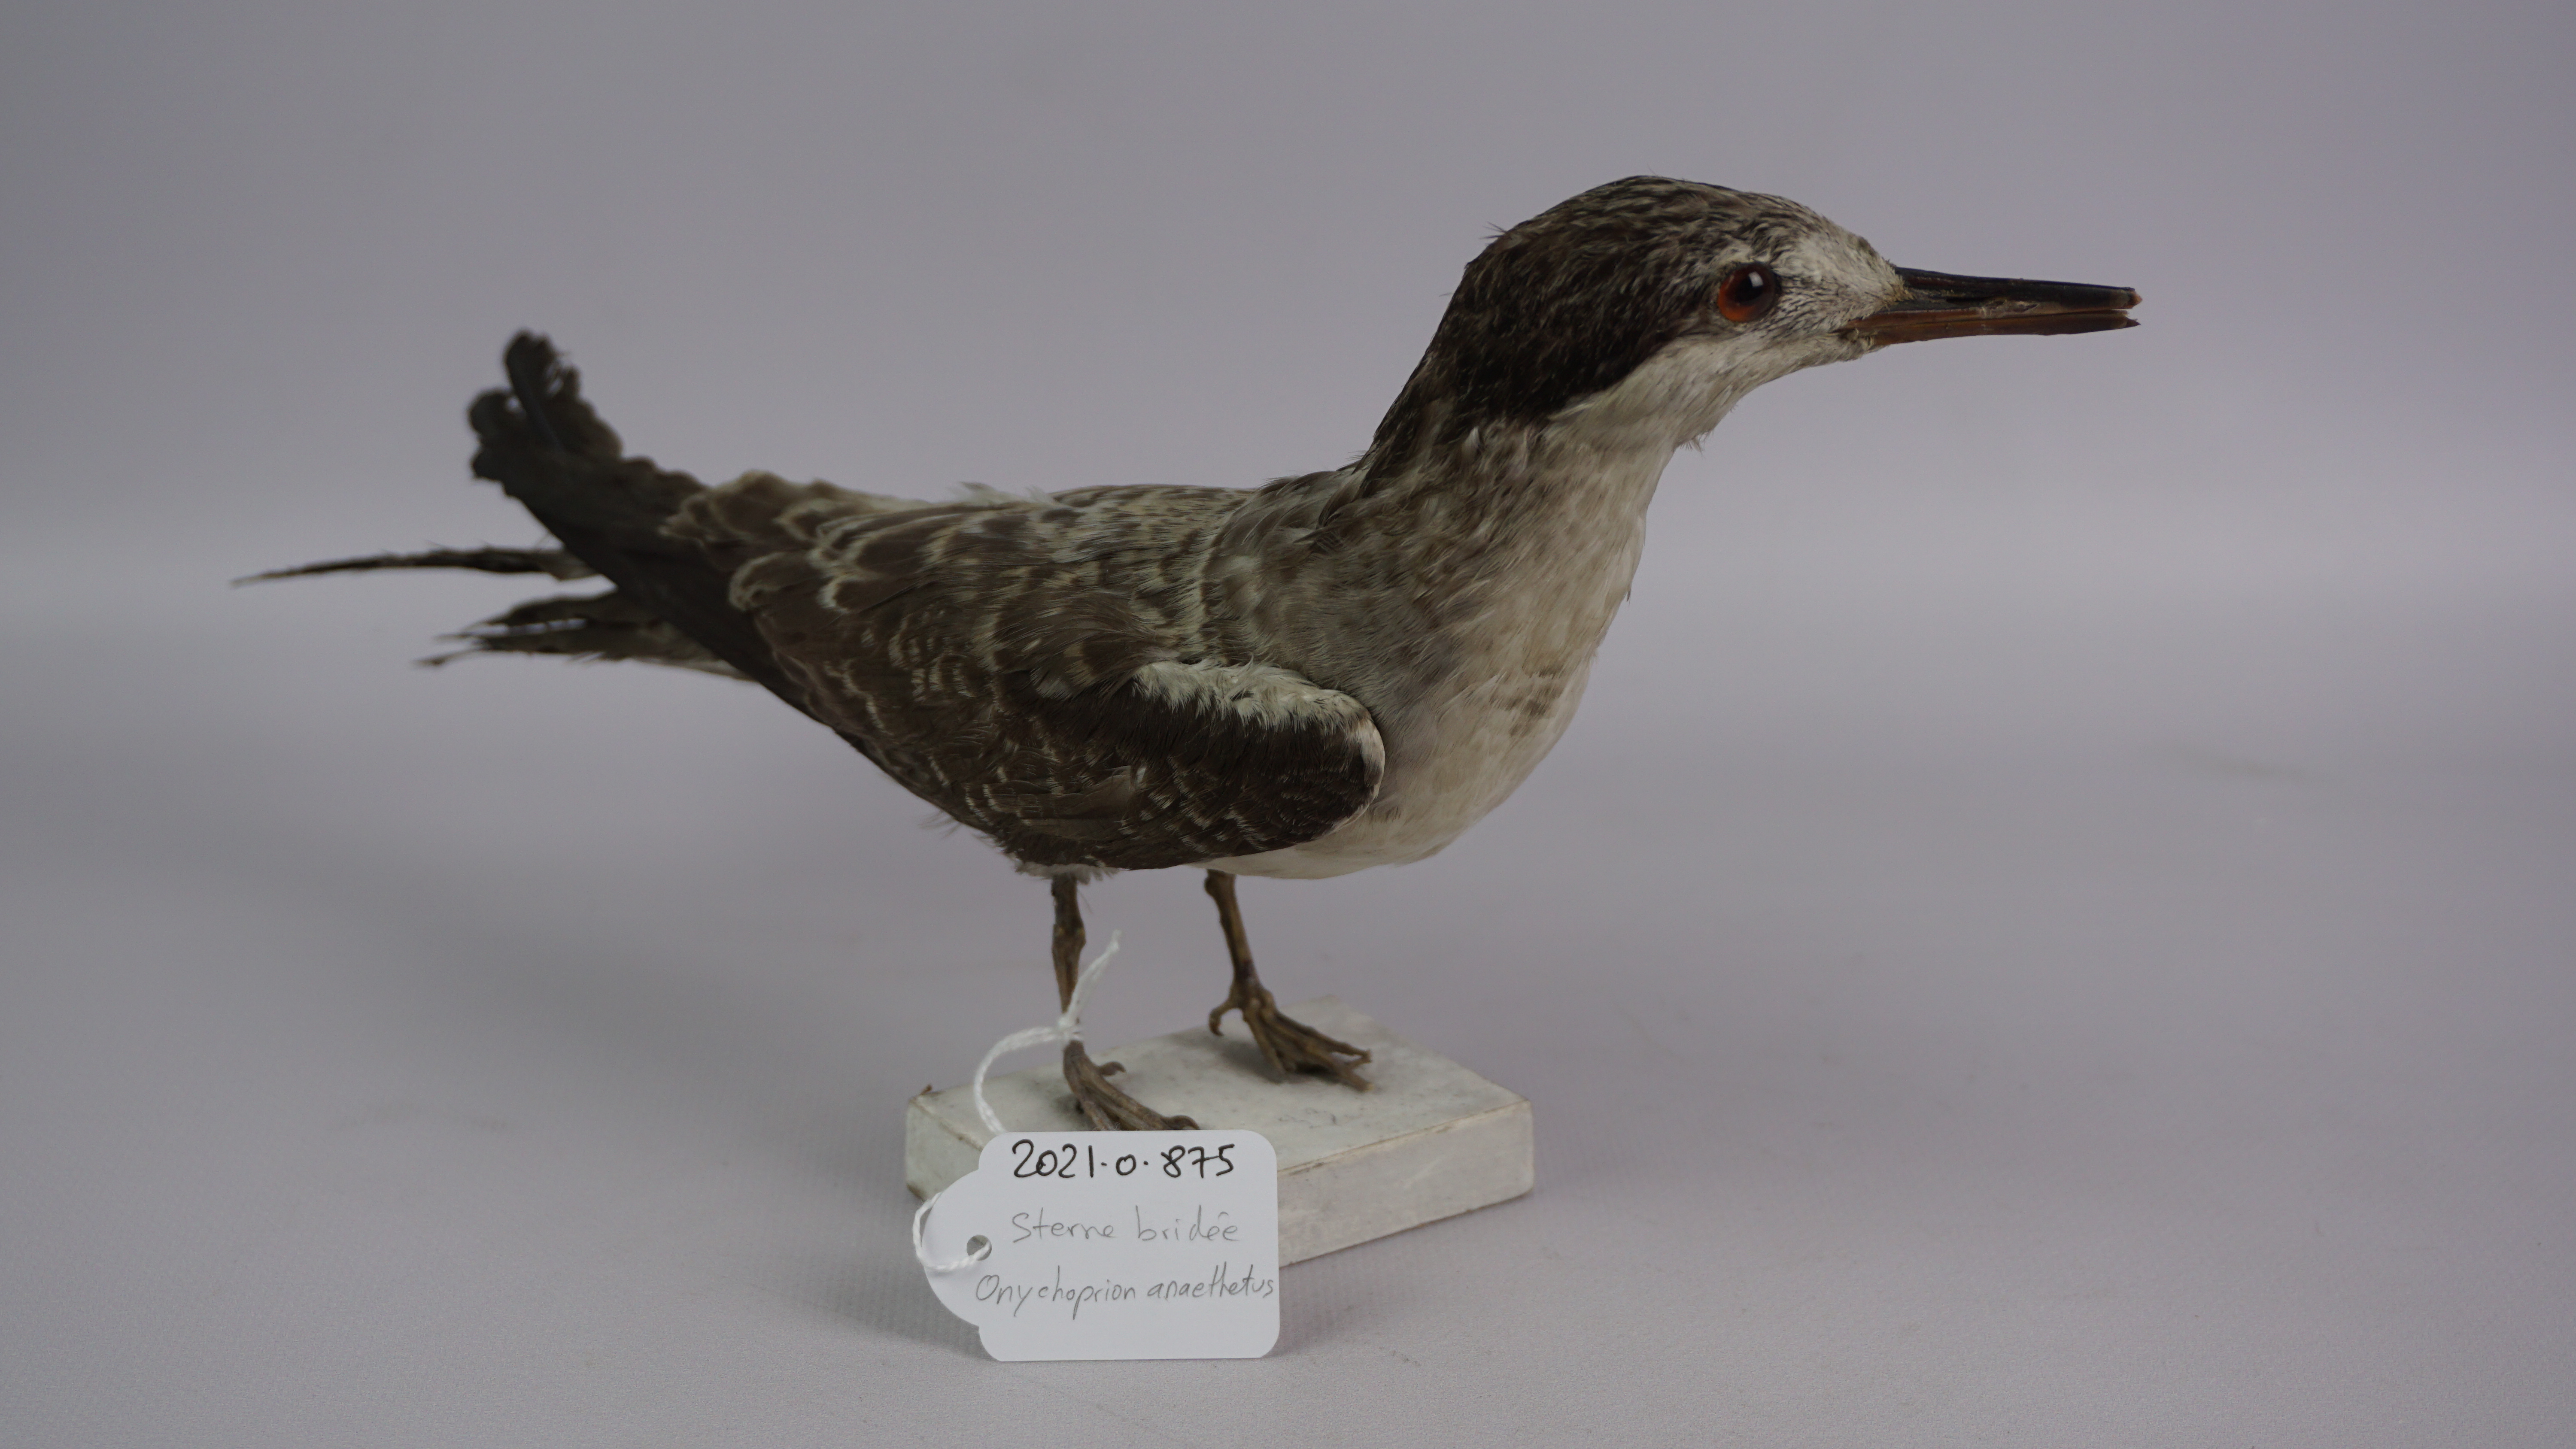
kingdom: Animalia
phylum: Chordata
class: Aves
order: Charadriiformes
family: Laridae
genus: Onychoprion
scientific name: Onychoprion anaethetus
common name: Bridled tern
